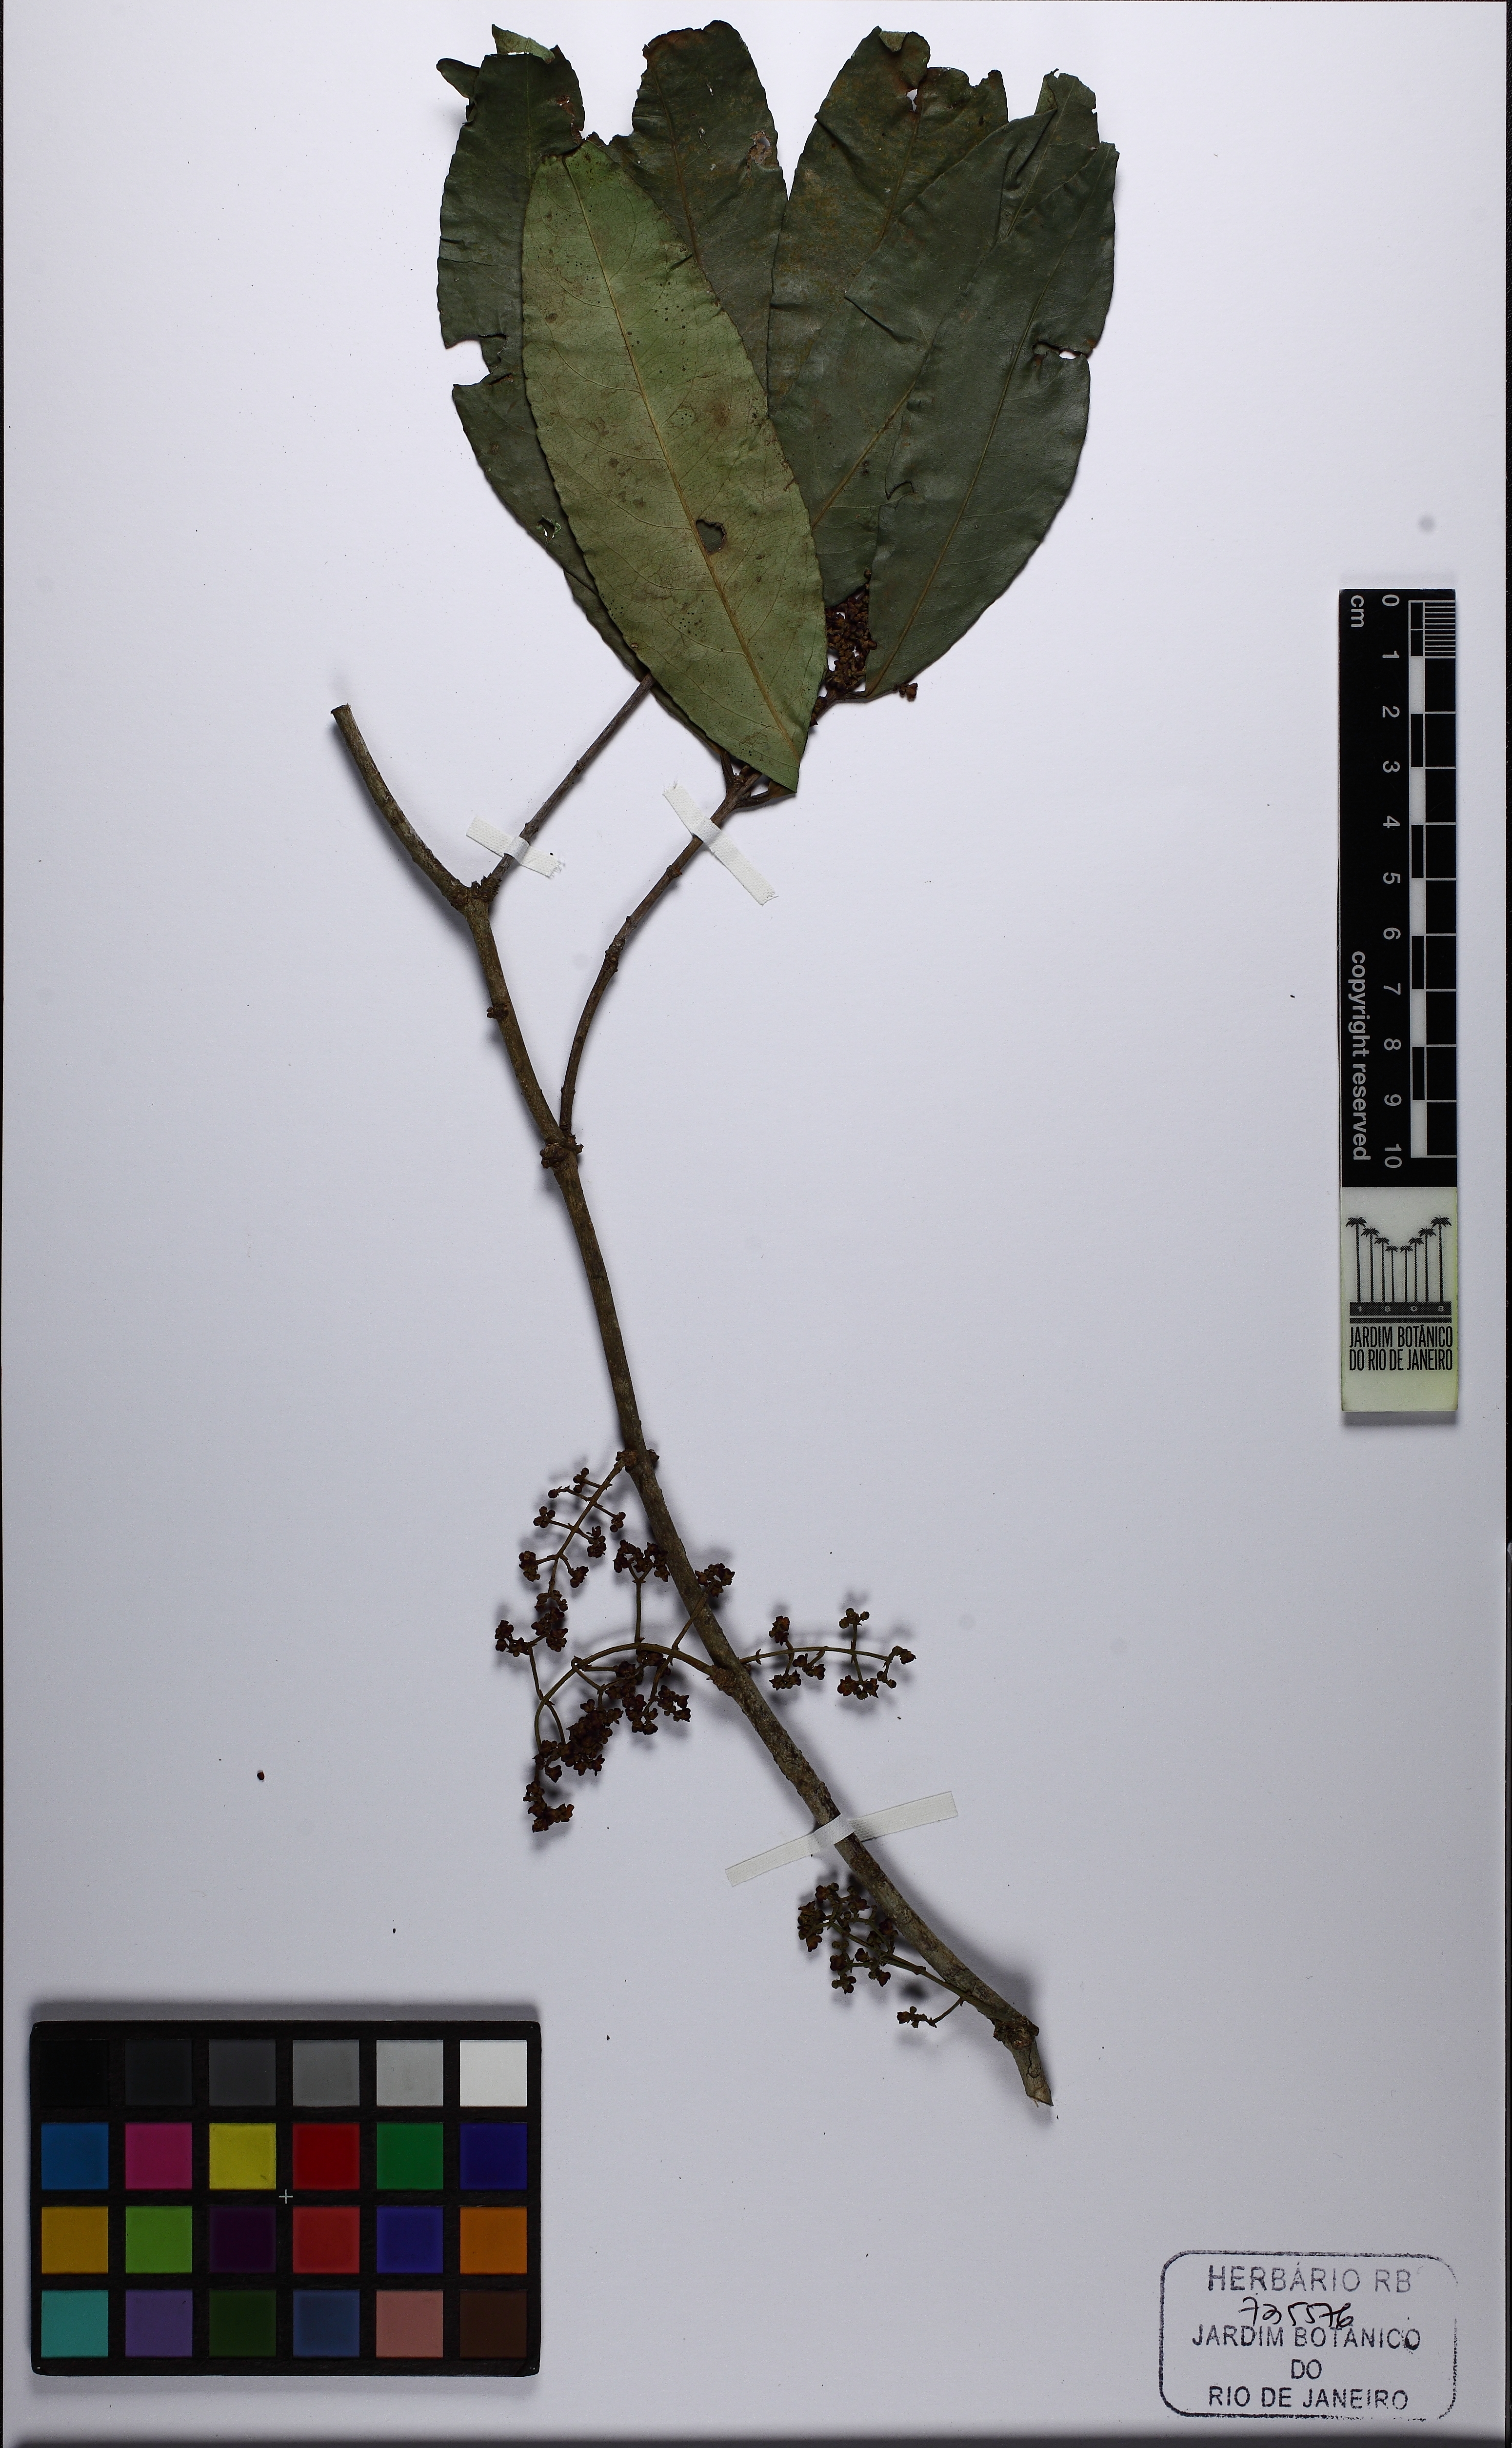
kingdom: Plantae
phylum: Tracheophyta
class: Magnoliopsida
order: Celastrales
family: Celastraceae
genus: Cheiloclinium
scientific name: Cheiloclinium cognatum
